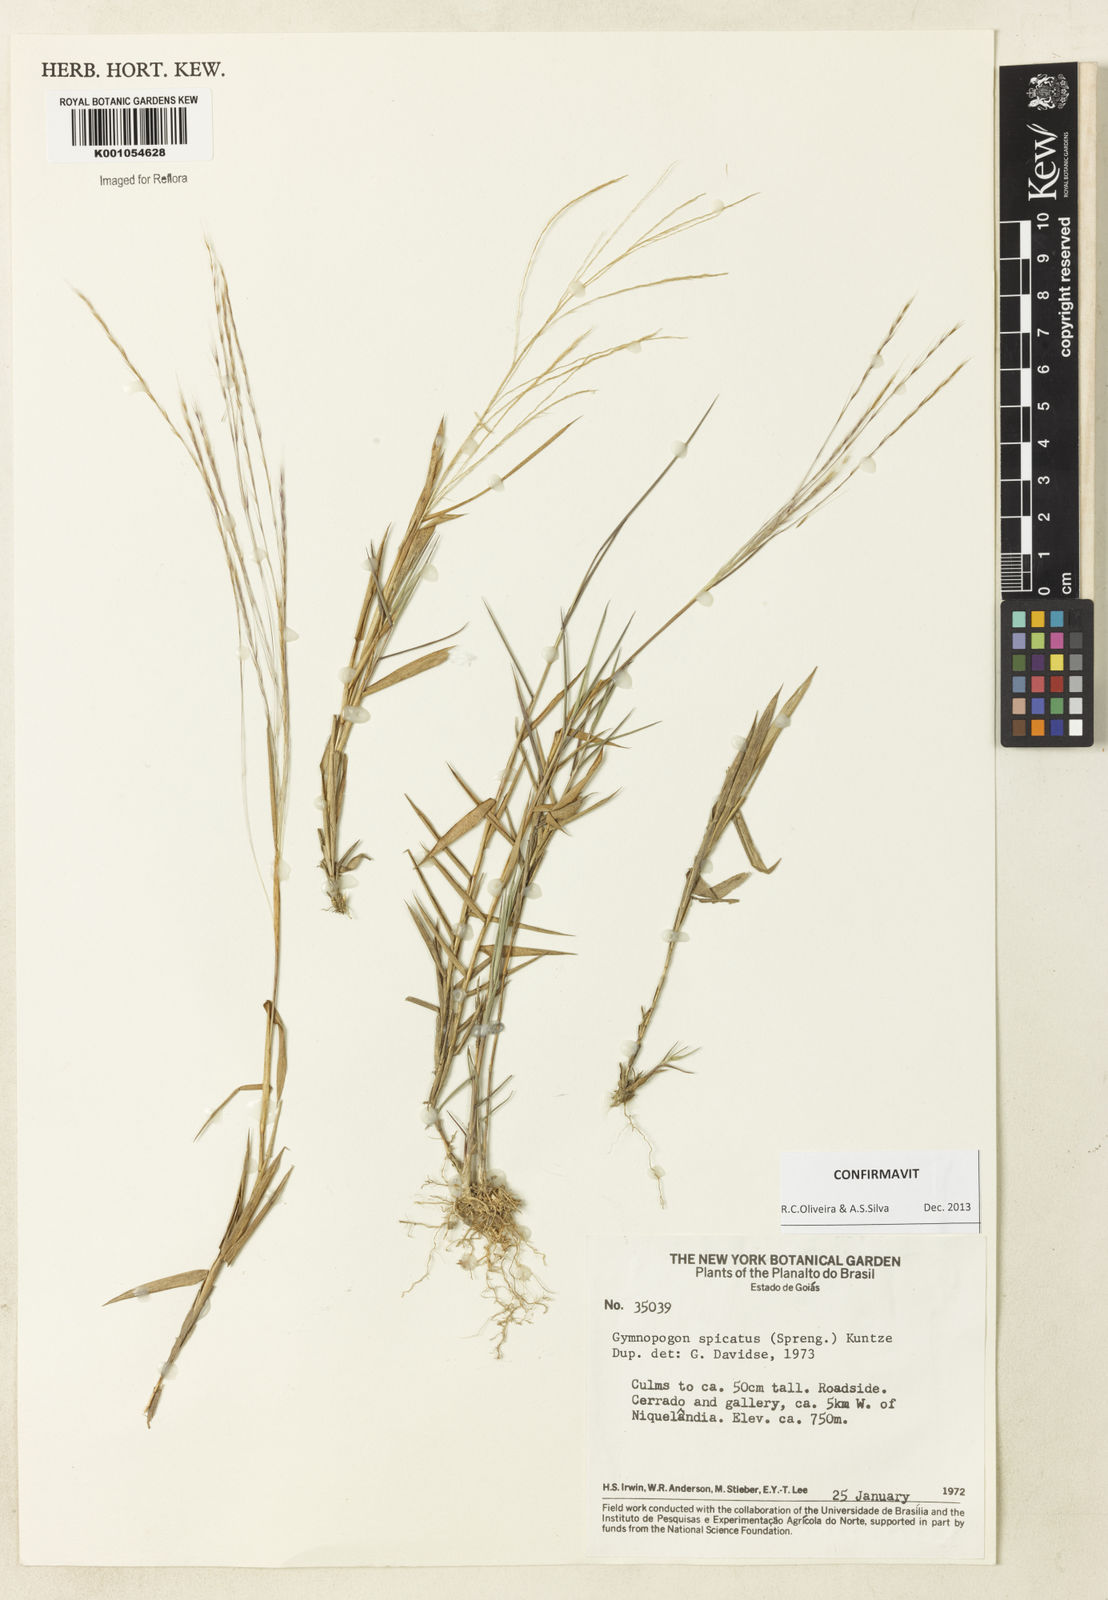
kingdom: Plantae
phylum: Tracheophyta
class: Liliopsida
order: Poales
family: Poaceae
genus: Gymnopogon
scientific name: Gymnopogon spicatus
